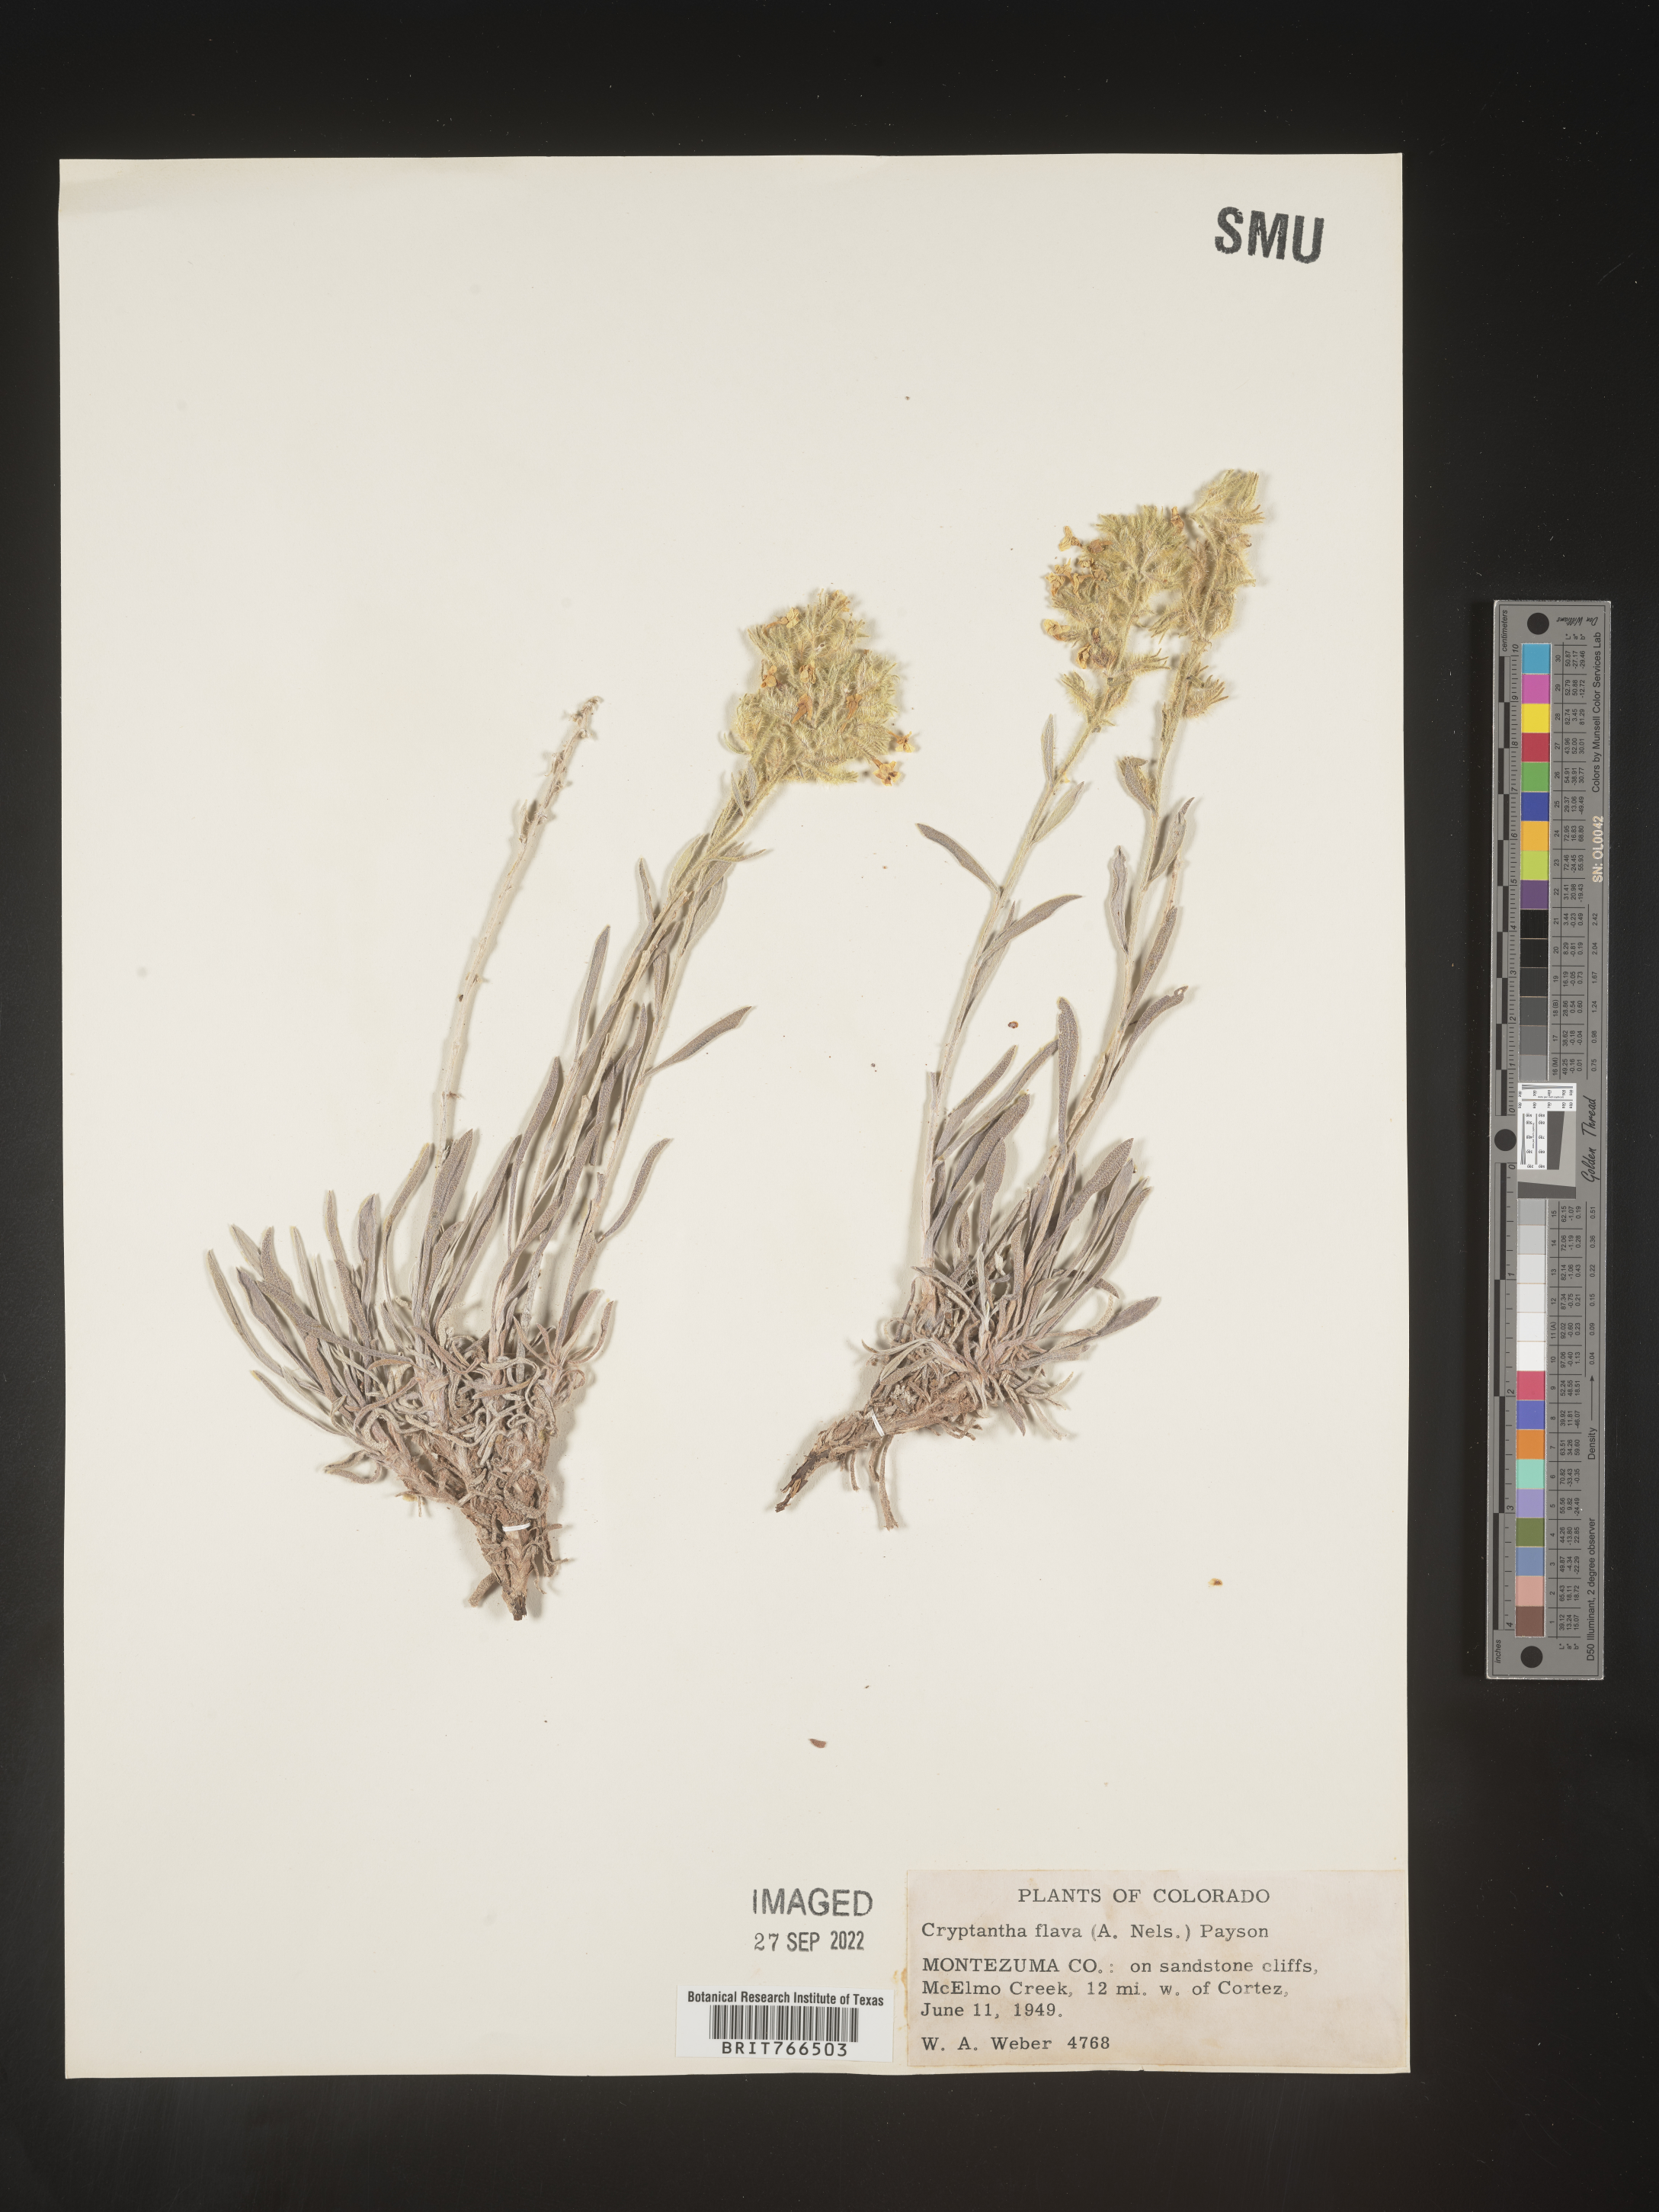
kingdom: Plantae
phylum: Tracheophyta
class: Magnoliopsida
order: Boraginales
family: Boraginaceae
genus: Oreocarya
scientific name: Oreocarya flava
